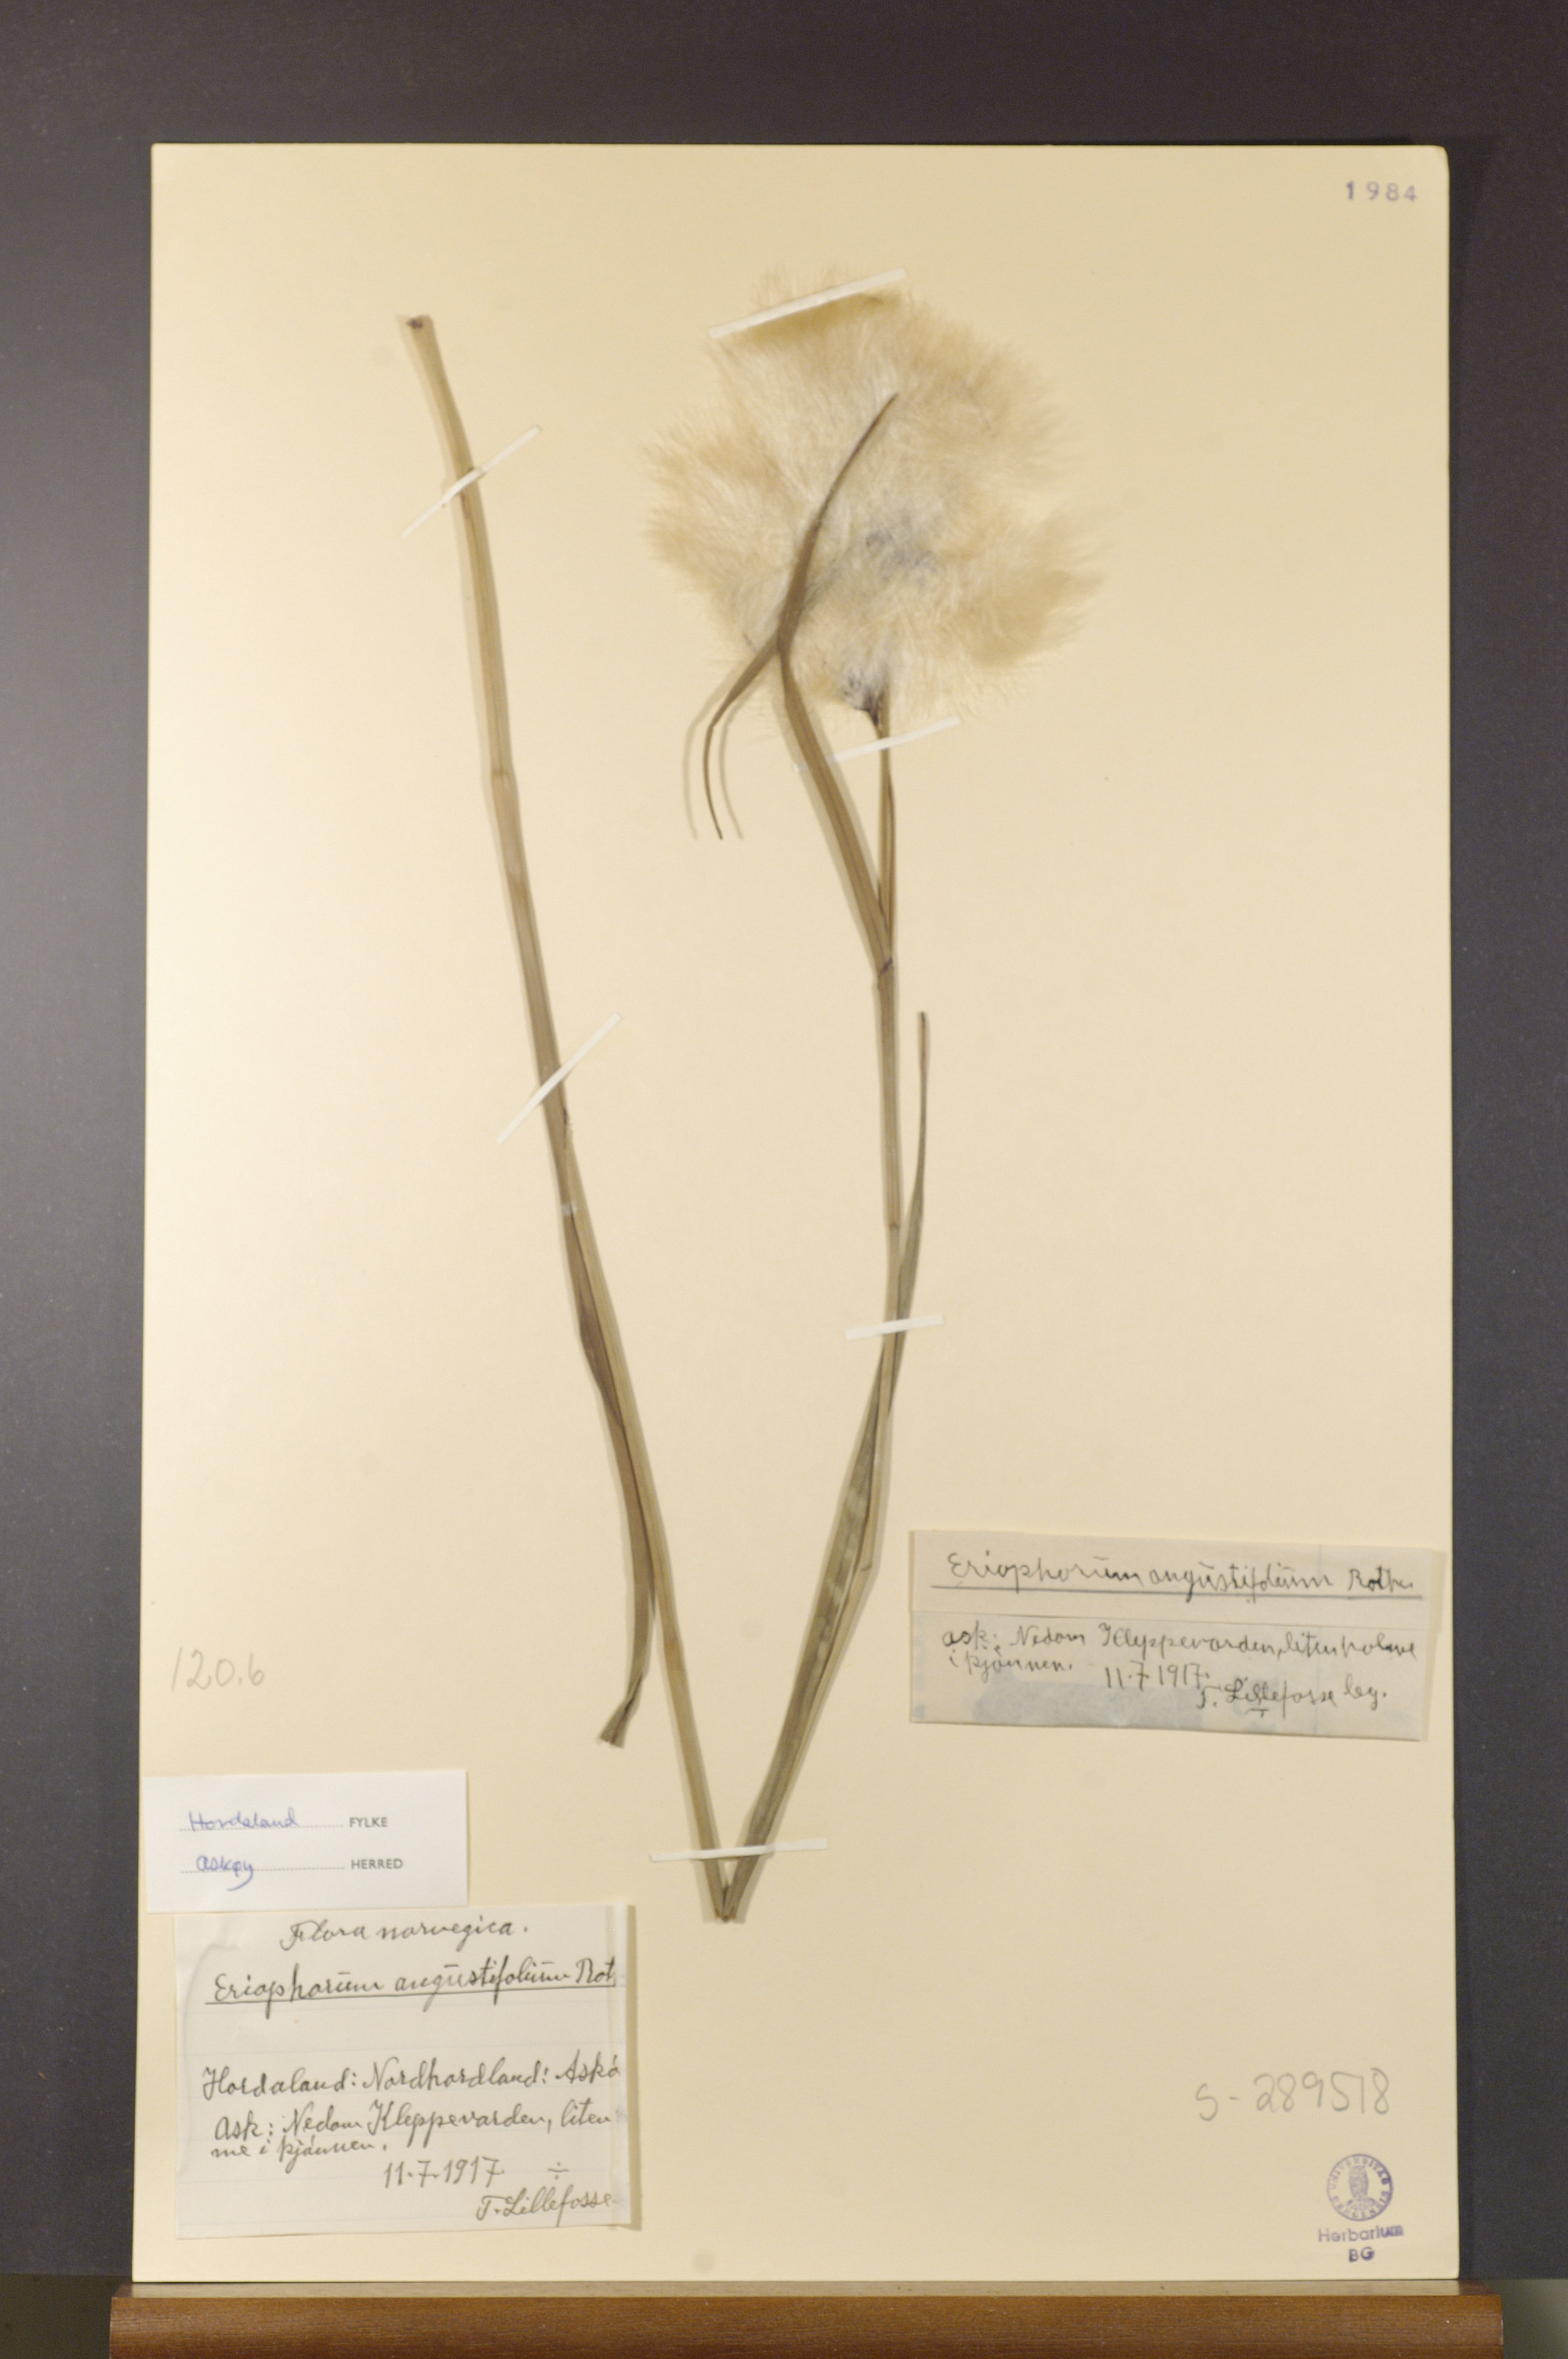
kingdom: Plantae
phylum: Tracheophyta
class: Liliopsida
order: Poales
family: Cyperaceae
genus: Eriophorum
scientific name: Eriophorum angustifolium
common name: Common cottongrass
